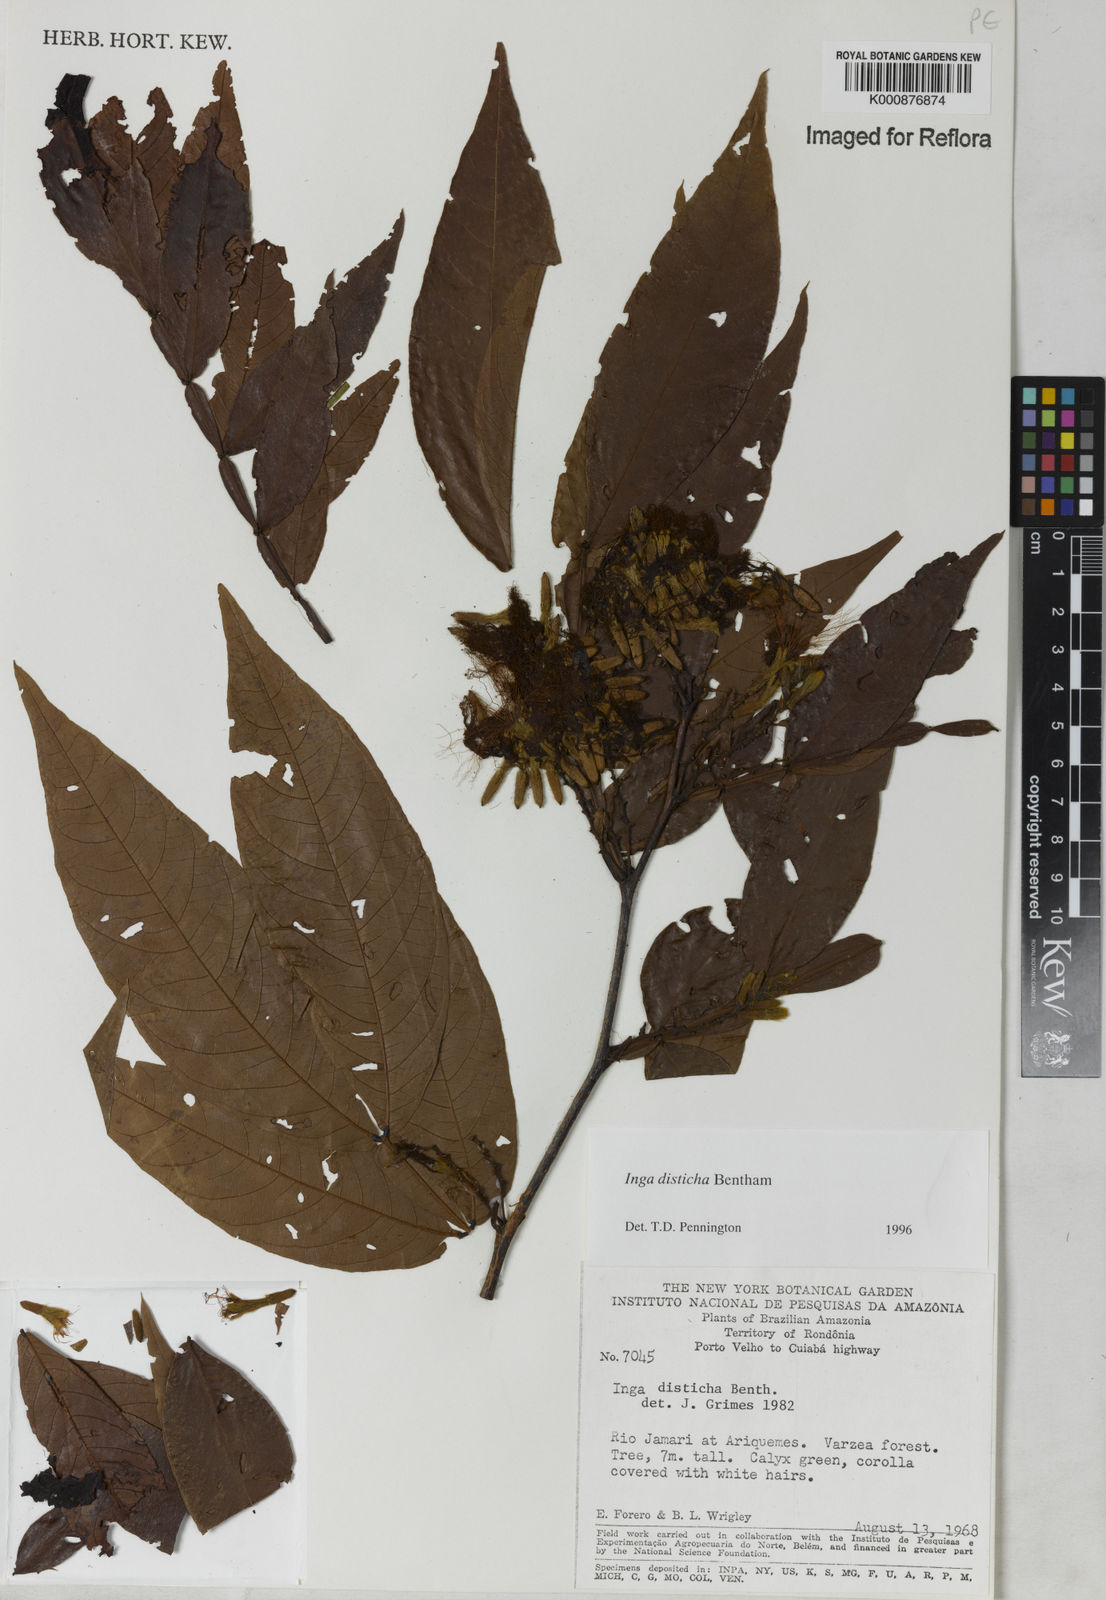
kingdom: Plantae
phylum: Tracheophyta
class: Magnoliopsida
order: Fabales
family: Fabaceae
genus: Inga
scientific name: Inga disticha
